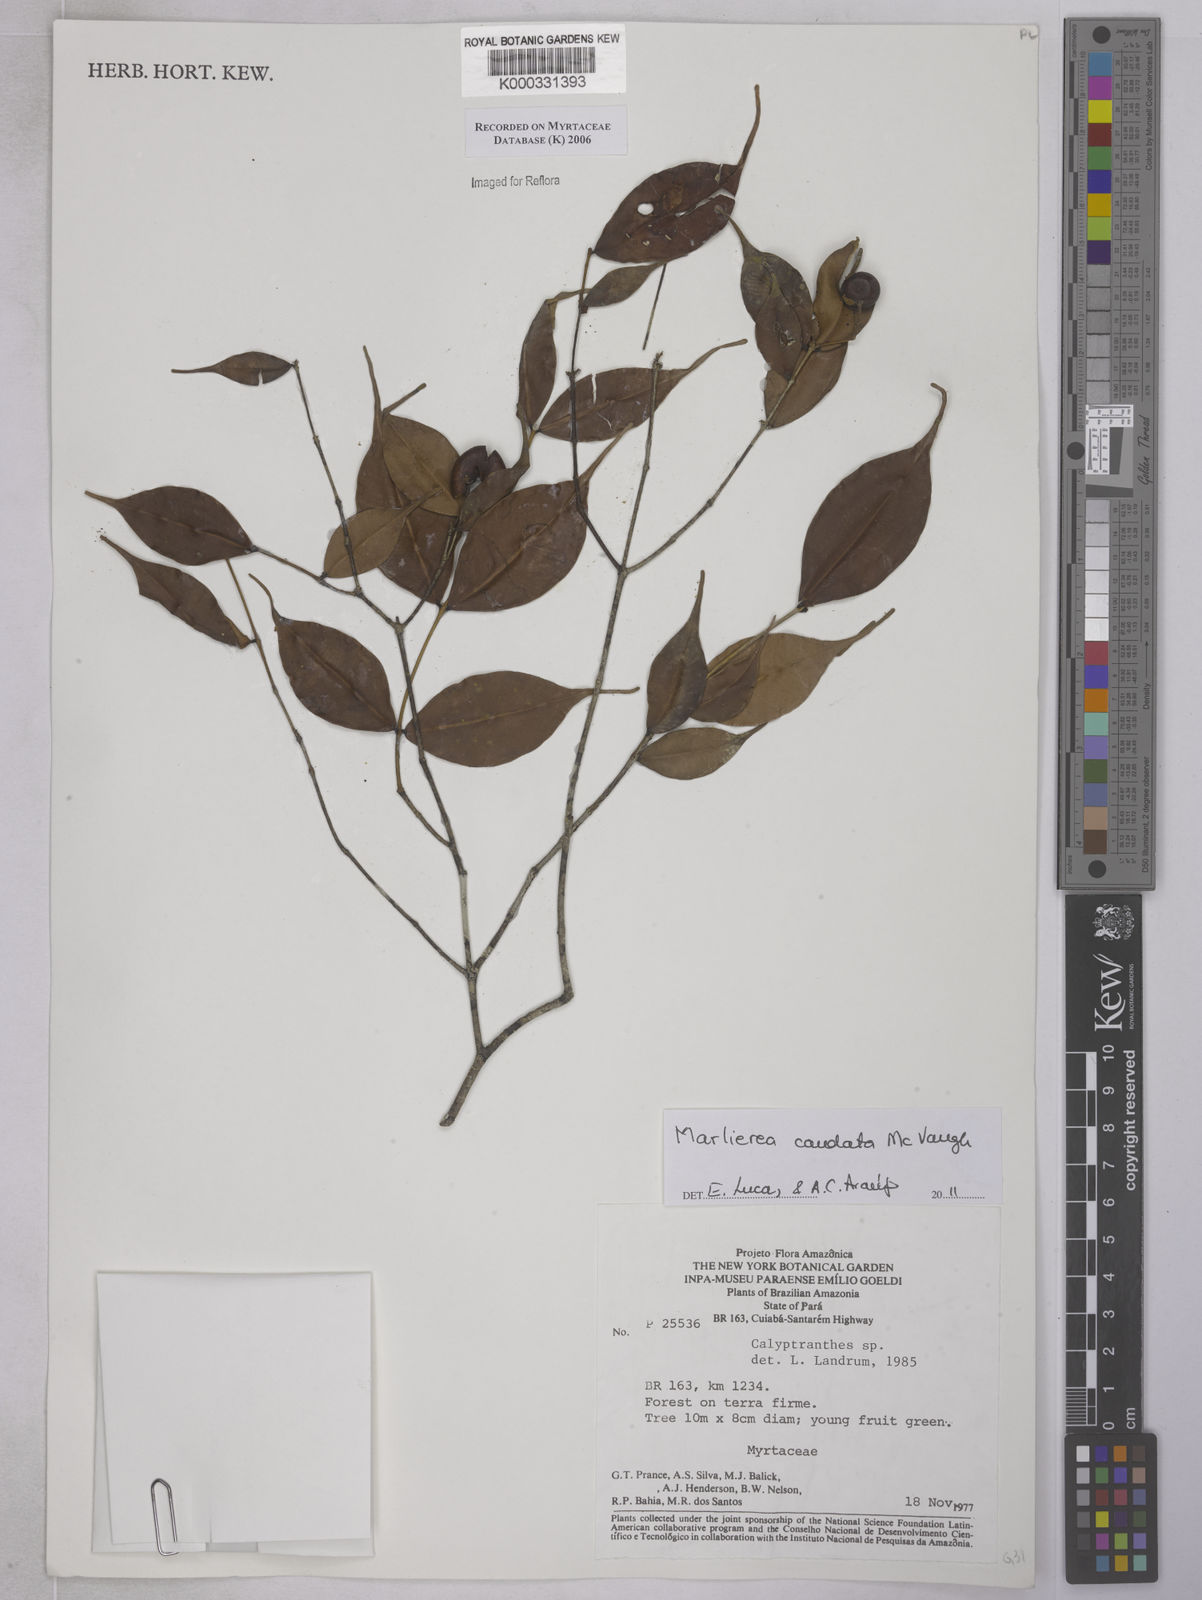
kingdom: Plantae
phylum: Tracheophyta
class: Magnoliopsida
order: Myrtales
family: Myrtaceae
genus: Calyptranthes
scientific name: Calyptranthes
